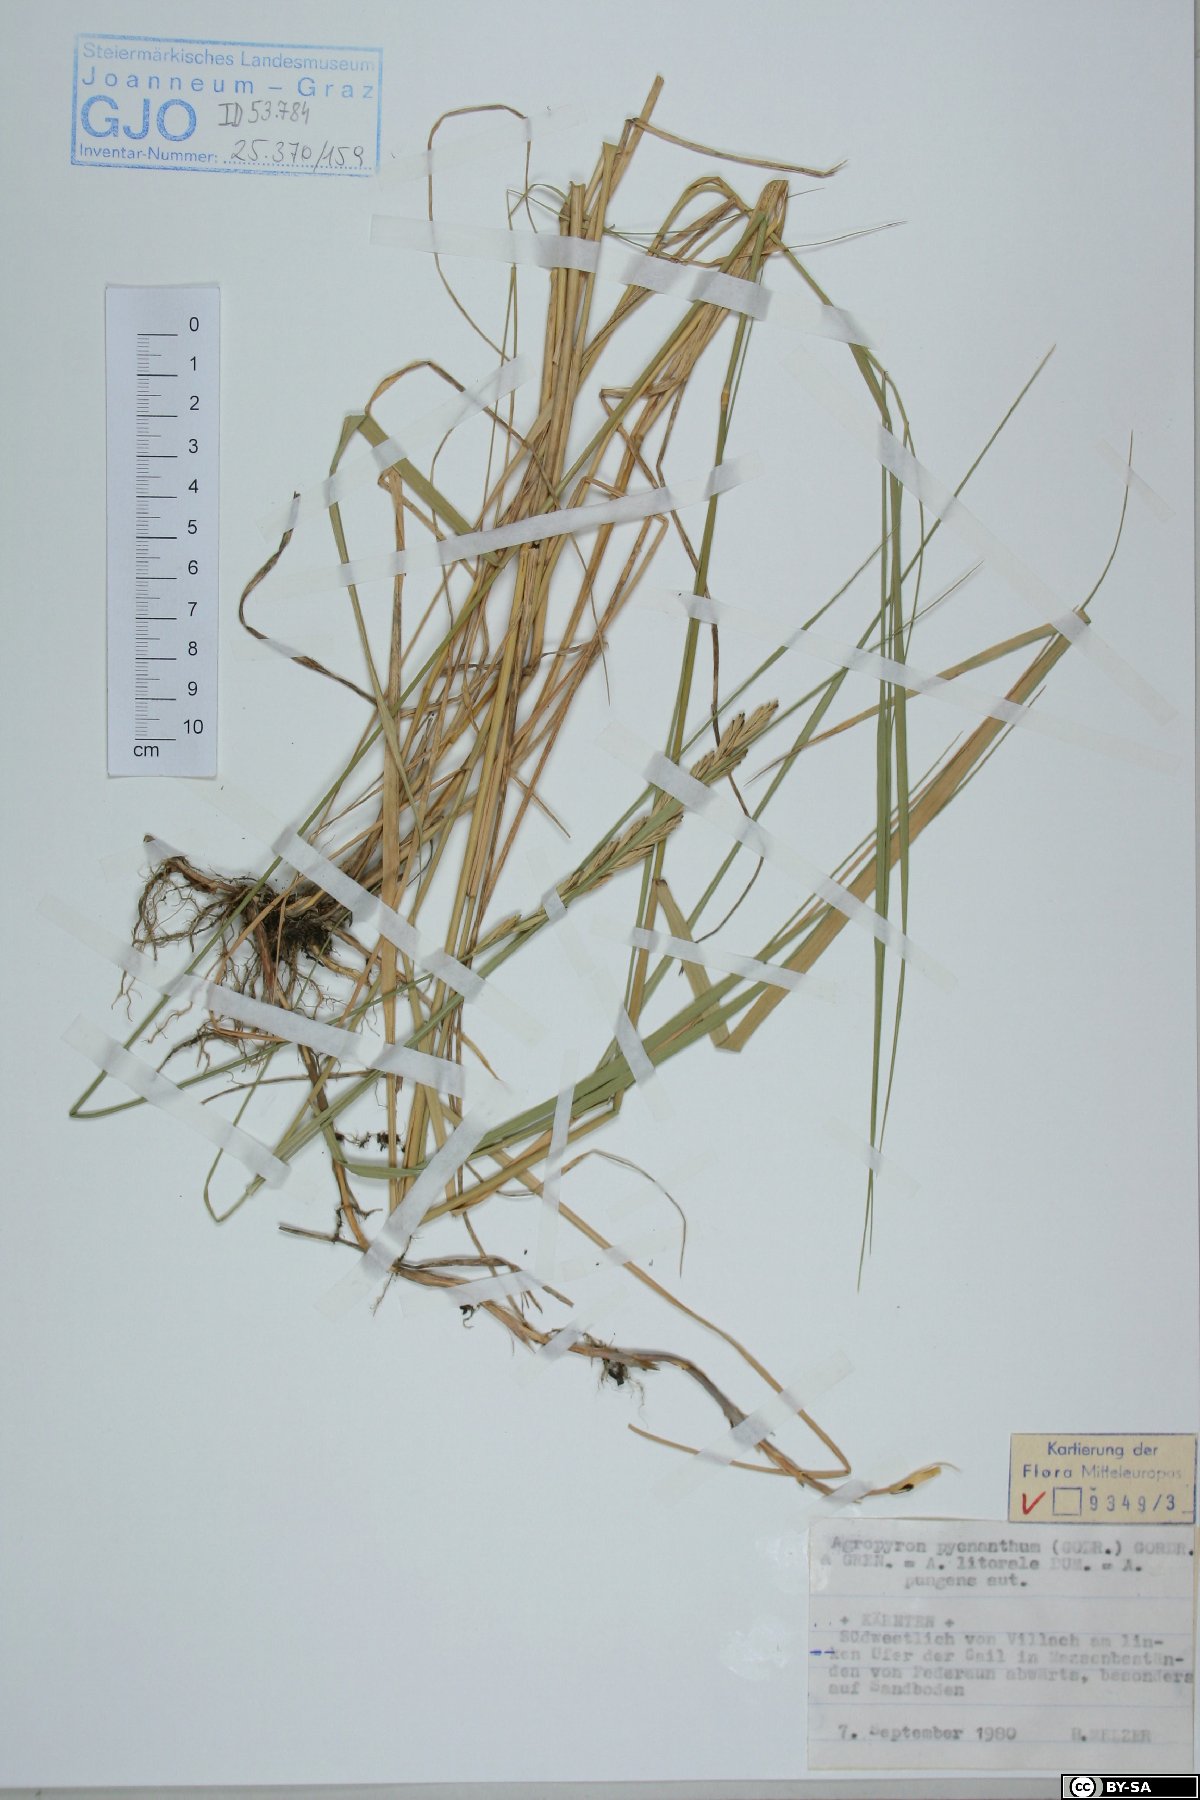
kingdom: Plantae
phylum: Tracheophyta
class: Liliopsida
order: Poales
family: Poaceae
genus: Thinopyrum
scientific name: Thinopyrum acutum
